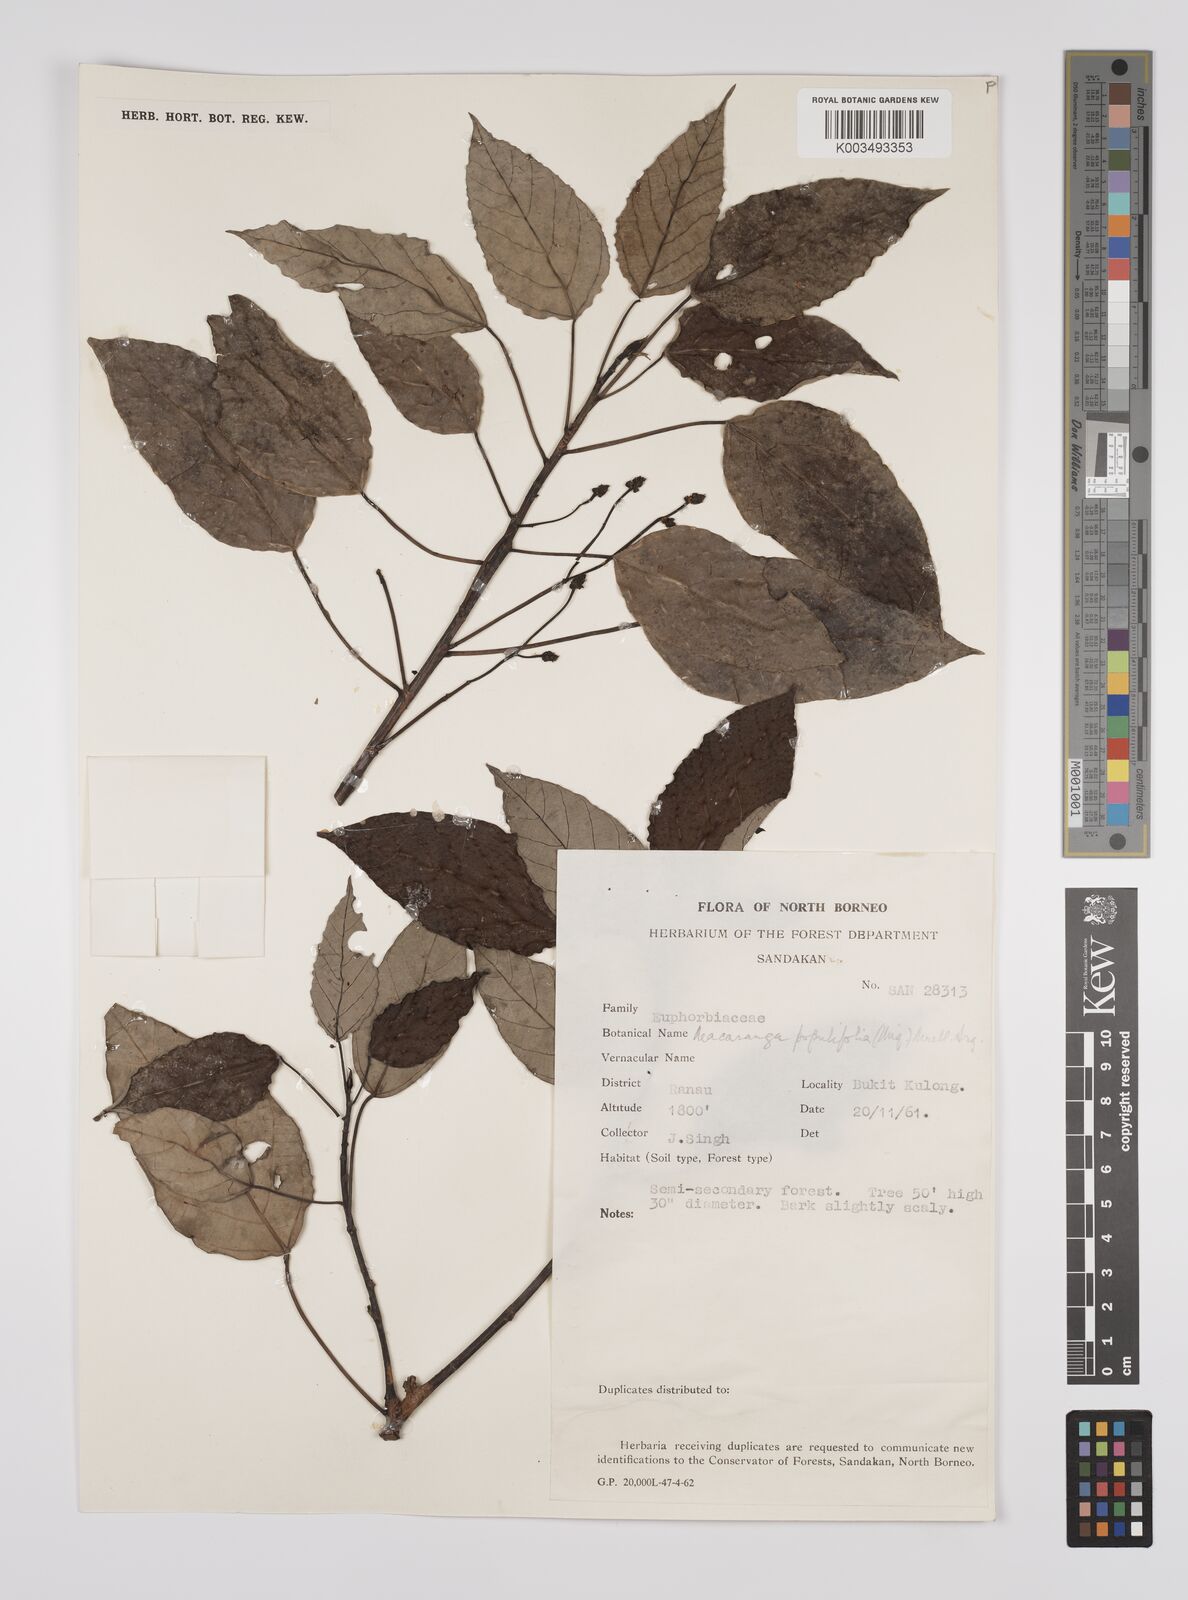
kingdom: Plantae
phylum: Tracheophyta
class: Magnoliopsida
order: Malpighiales
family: Euphorbiaceae
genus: Macaranga
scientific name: Macaranga conifera
